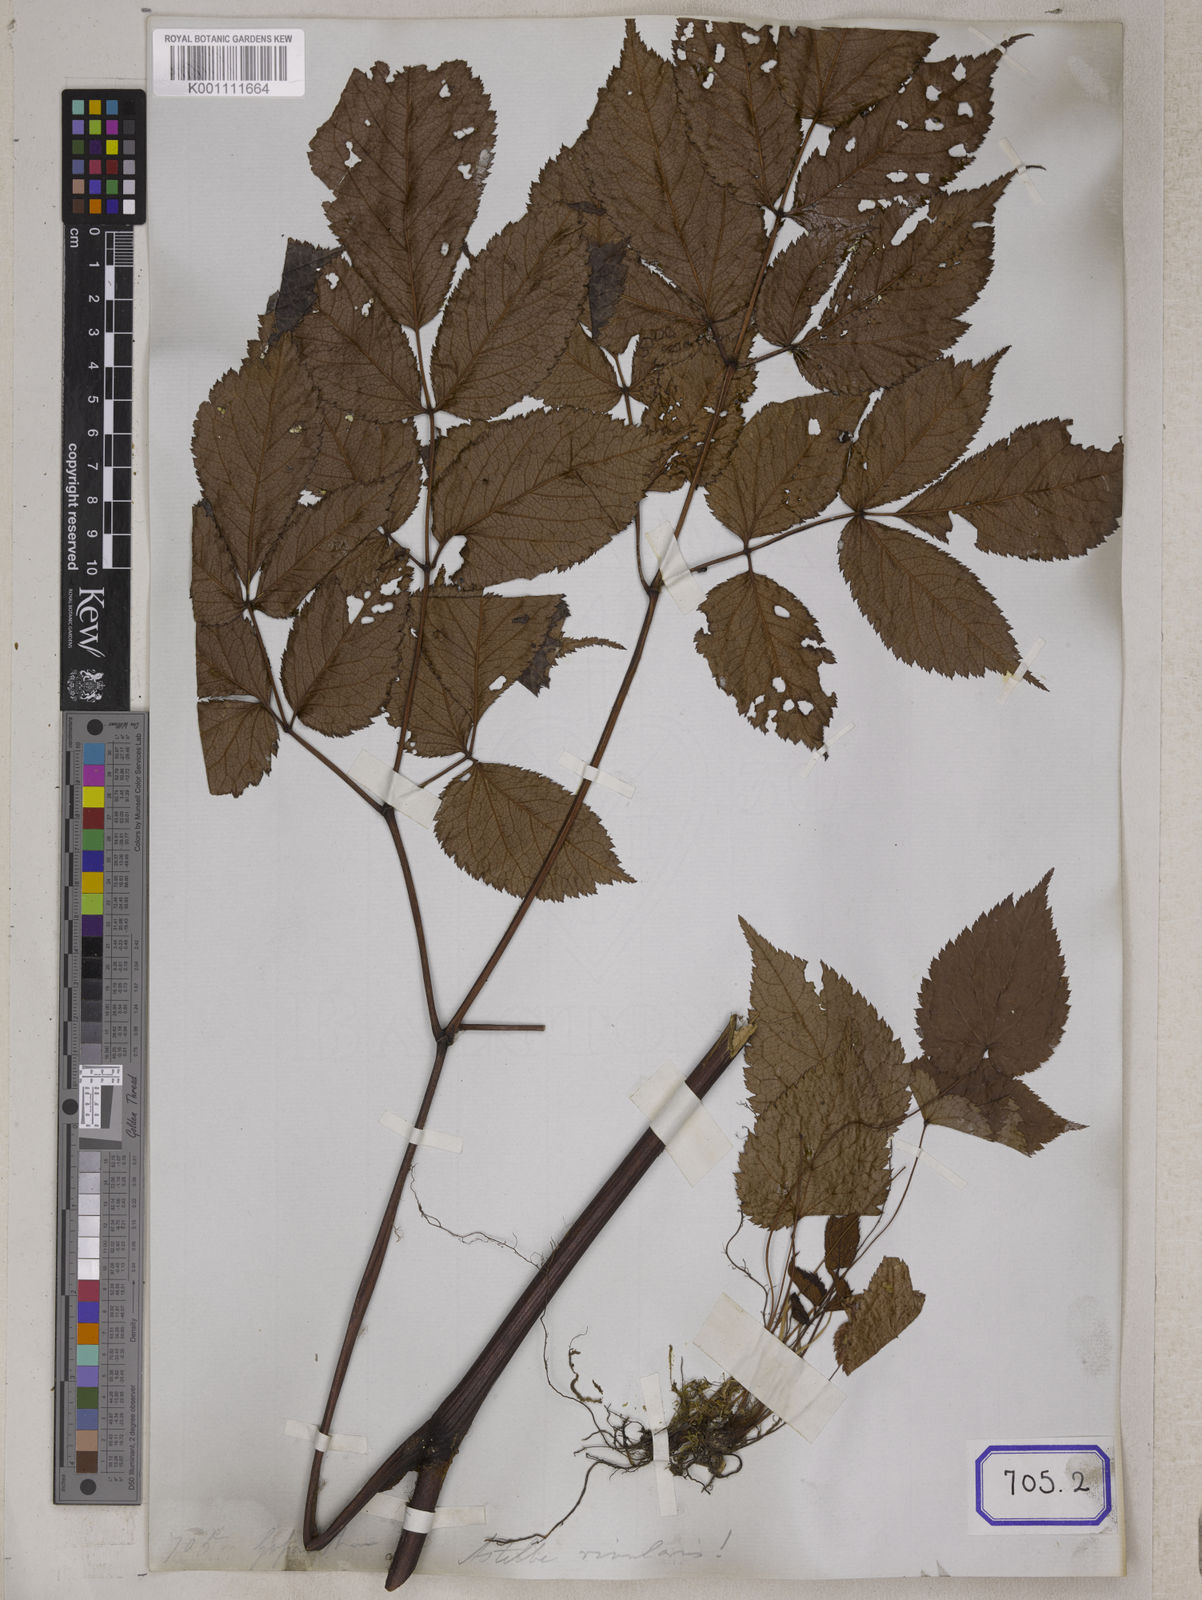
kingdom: Plantae
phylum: Tracheophyta
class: Magnoliopsida
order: Rosales
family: Rosaceae
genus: Spiraea
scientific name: Spiraea
